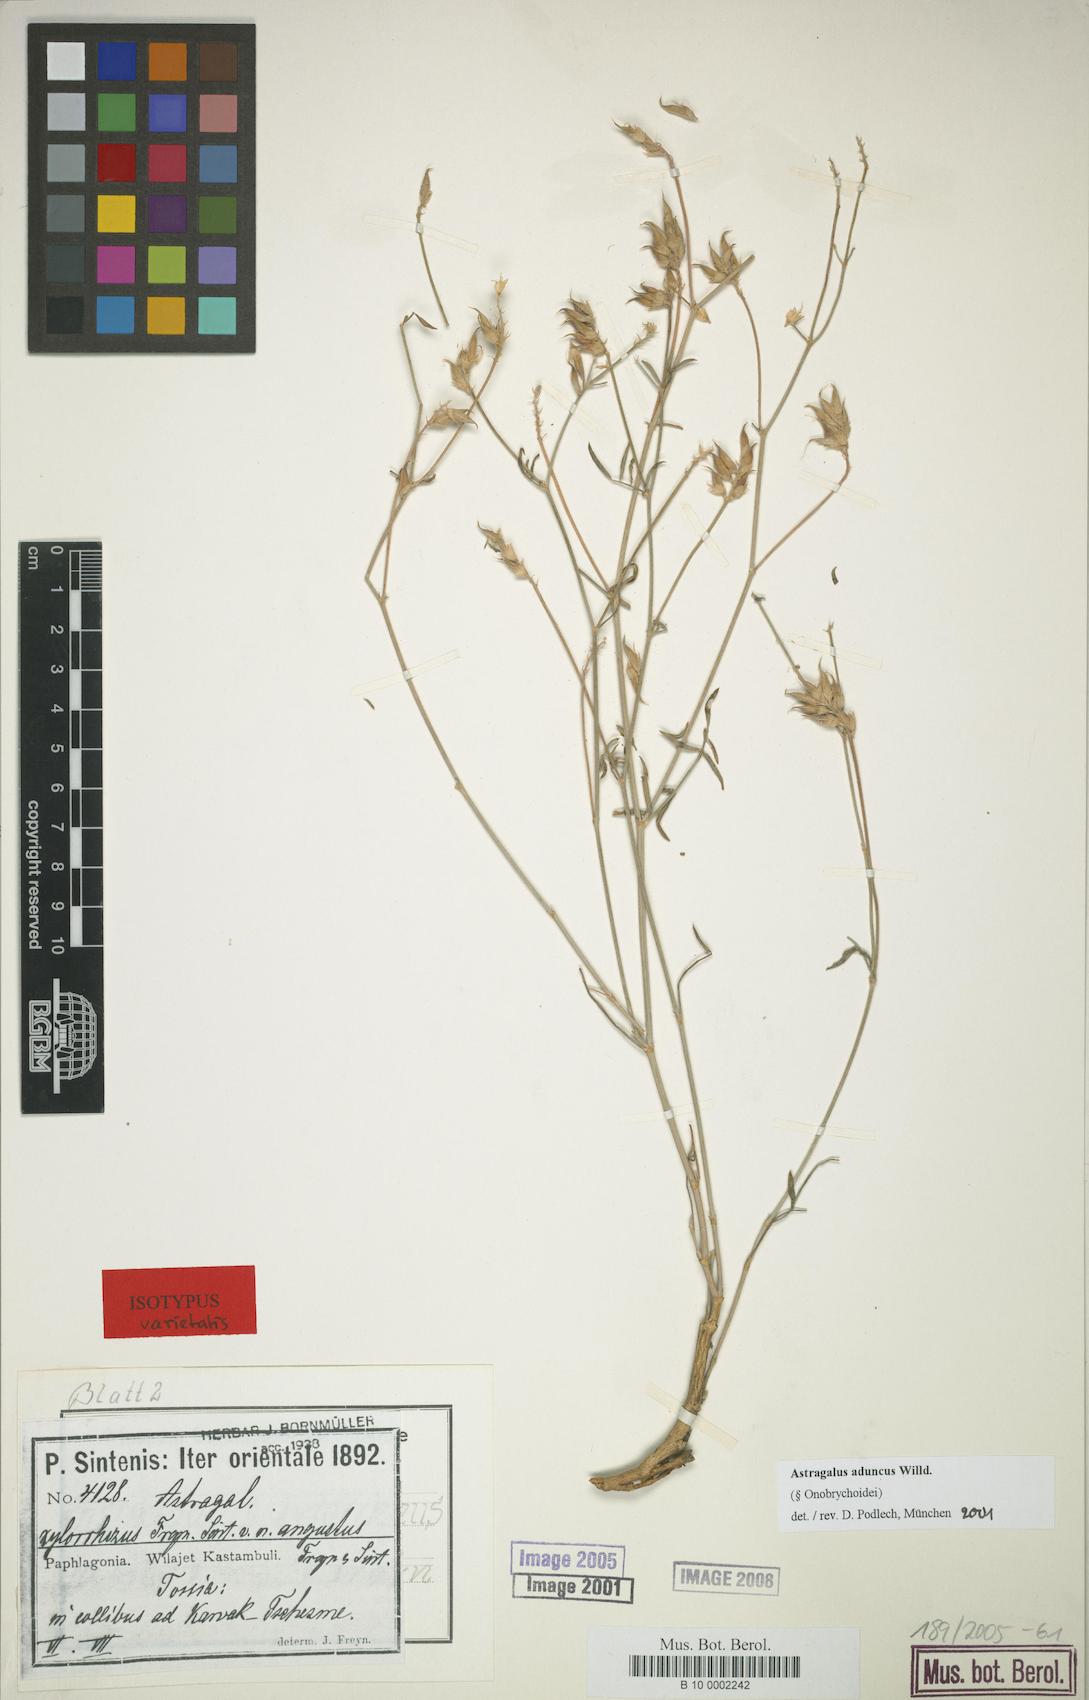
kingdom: Plantae
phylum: Tracheophyta
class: Magnoliopsida
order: Fabales
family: Fabaceae
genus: Astragalus
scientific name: Astragalus aduncus
